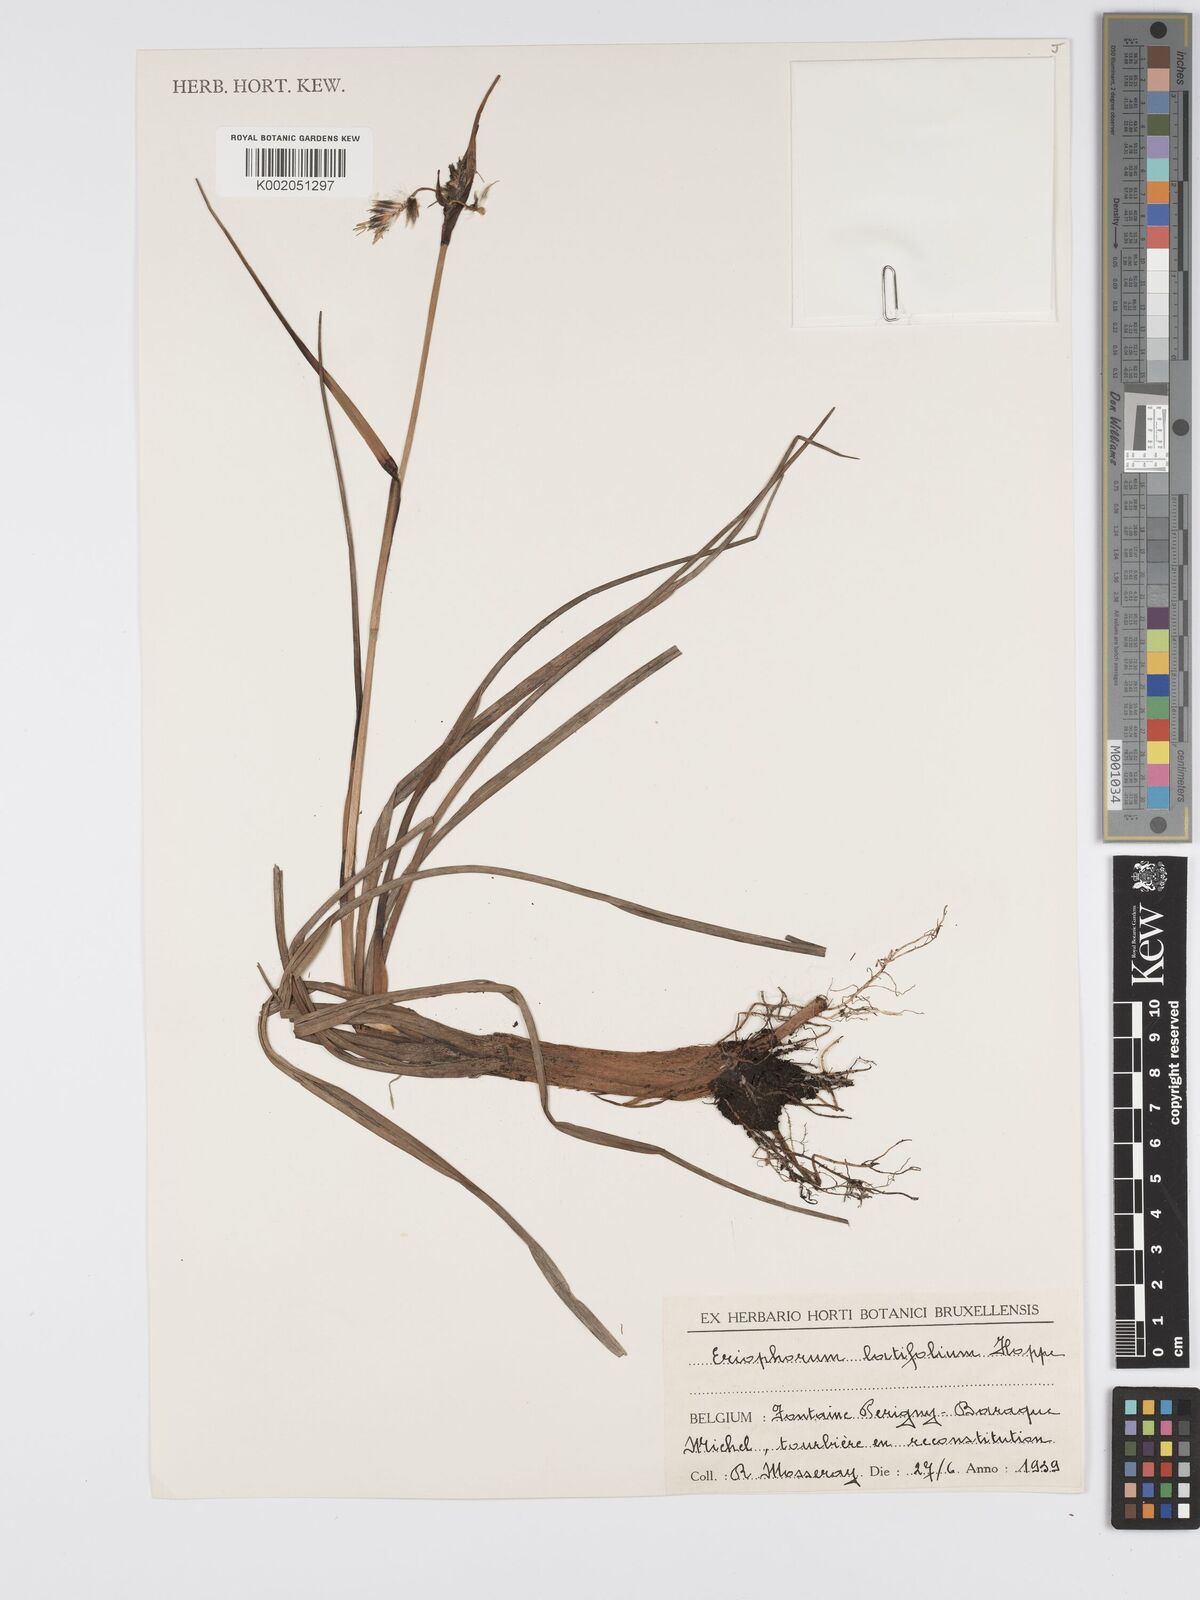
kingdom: Plantae
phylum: Tracheophyta
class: Liliopsida
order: Poales
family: Cyperaceae
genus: Eriophorum
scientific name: Eriophorum latifolium
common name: Broad-leaved cottongrass
